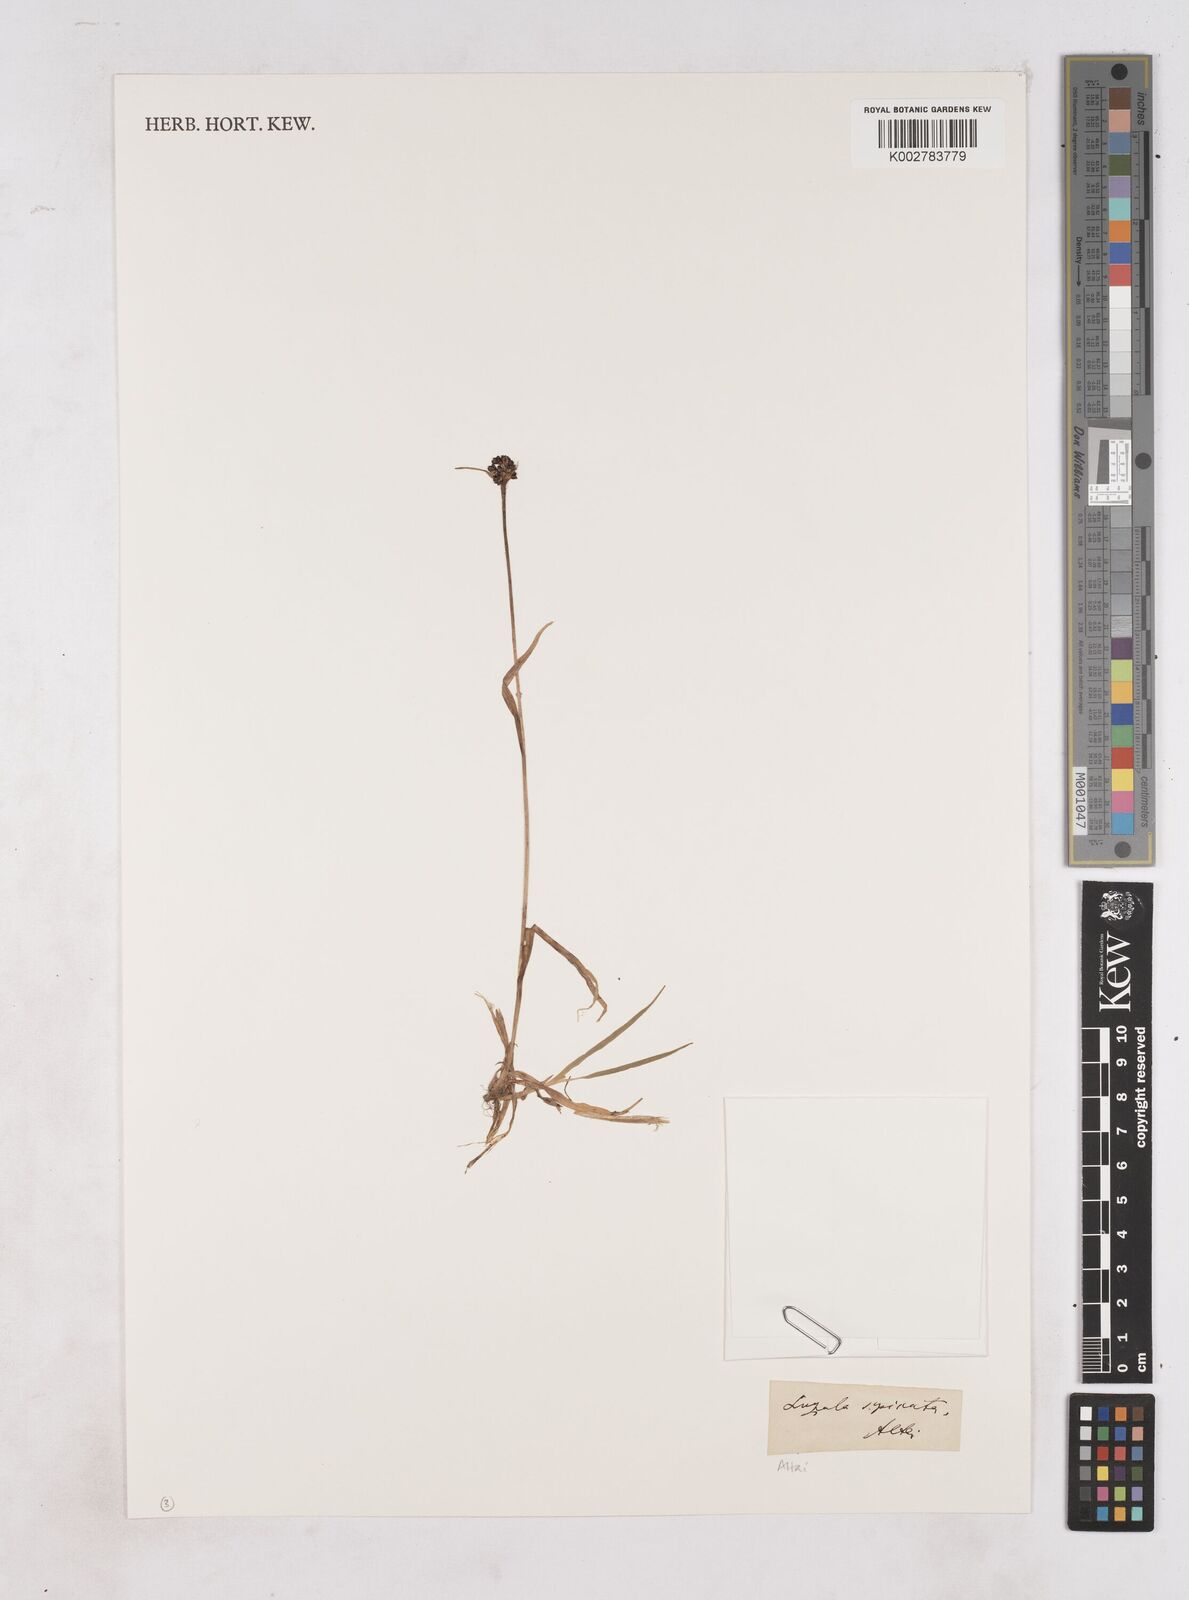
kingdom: Plantae
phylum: Tracheophyta
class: Liliopsida
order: Poales
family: Juncaceae
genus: Luzula
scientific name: Luzula spicata
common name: Spiked wood-rush
